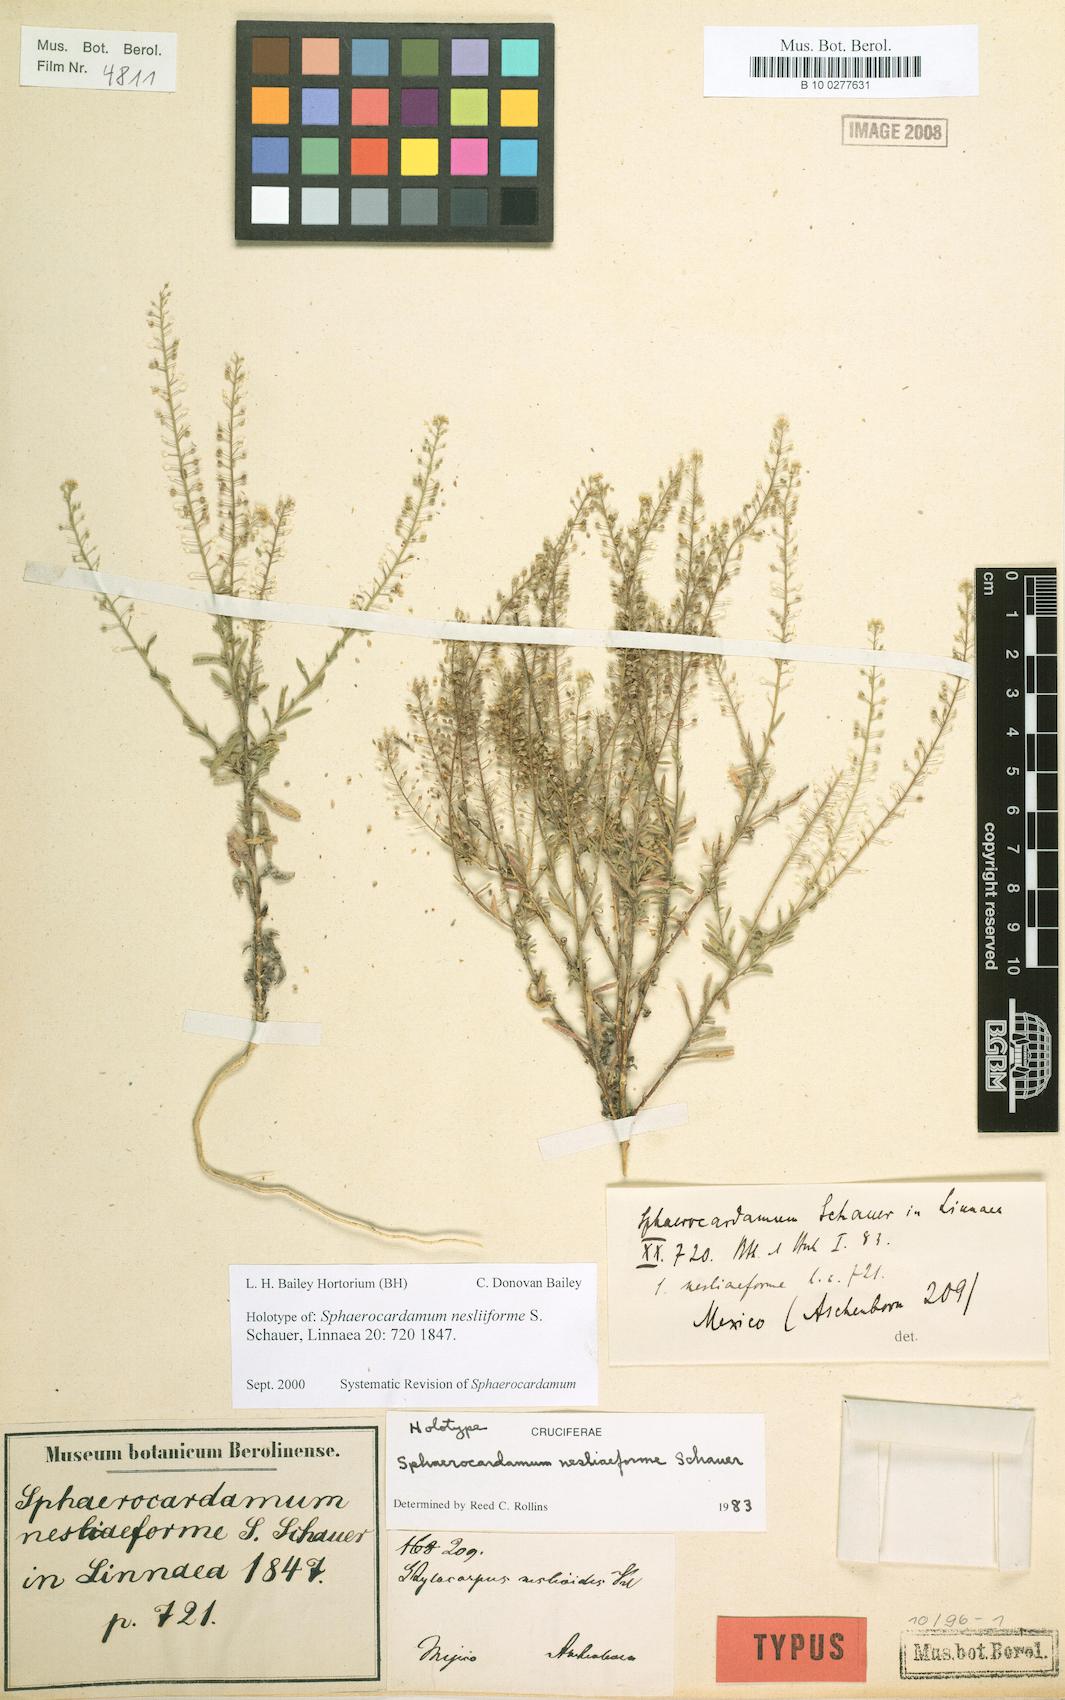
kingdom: Plantae
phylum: Tracheophyta
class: Magnoliopsida
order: Brassicales
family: Brassicaceae
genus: Sphaerocardamum
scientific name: Sphaerocardamum nesliiforme
